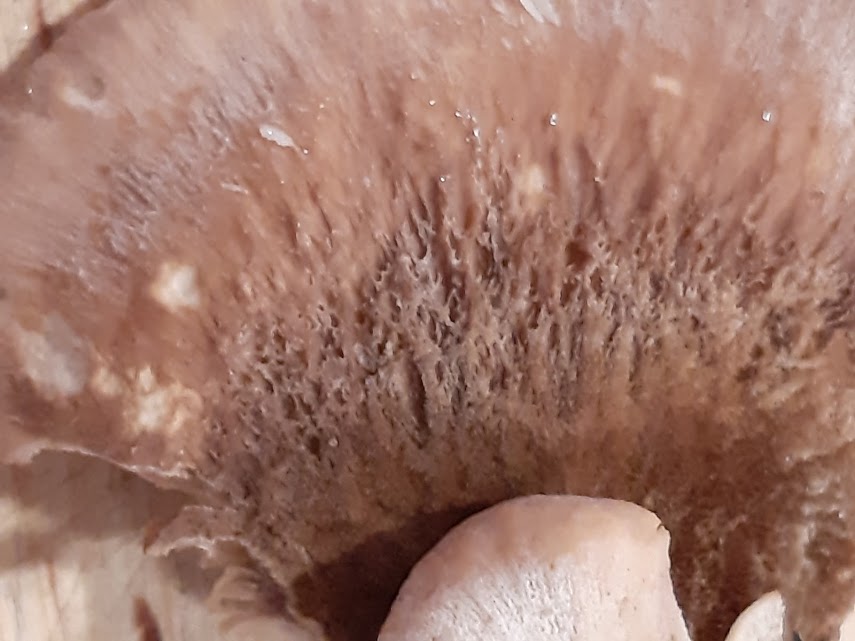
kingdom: Fungi
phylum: Basidiomycota
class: Agaricomycetes
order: Russulales
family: Auriscalpiaceae
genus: Lentinellus
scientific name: Lentinellus ursinus
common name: børstehåret savbladhat
